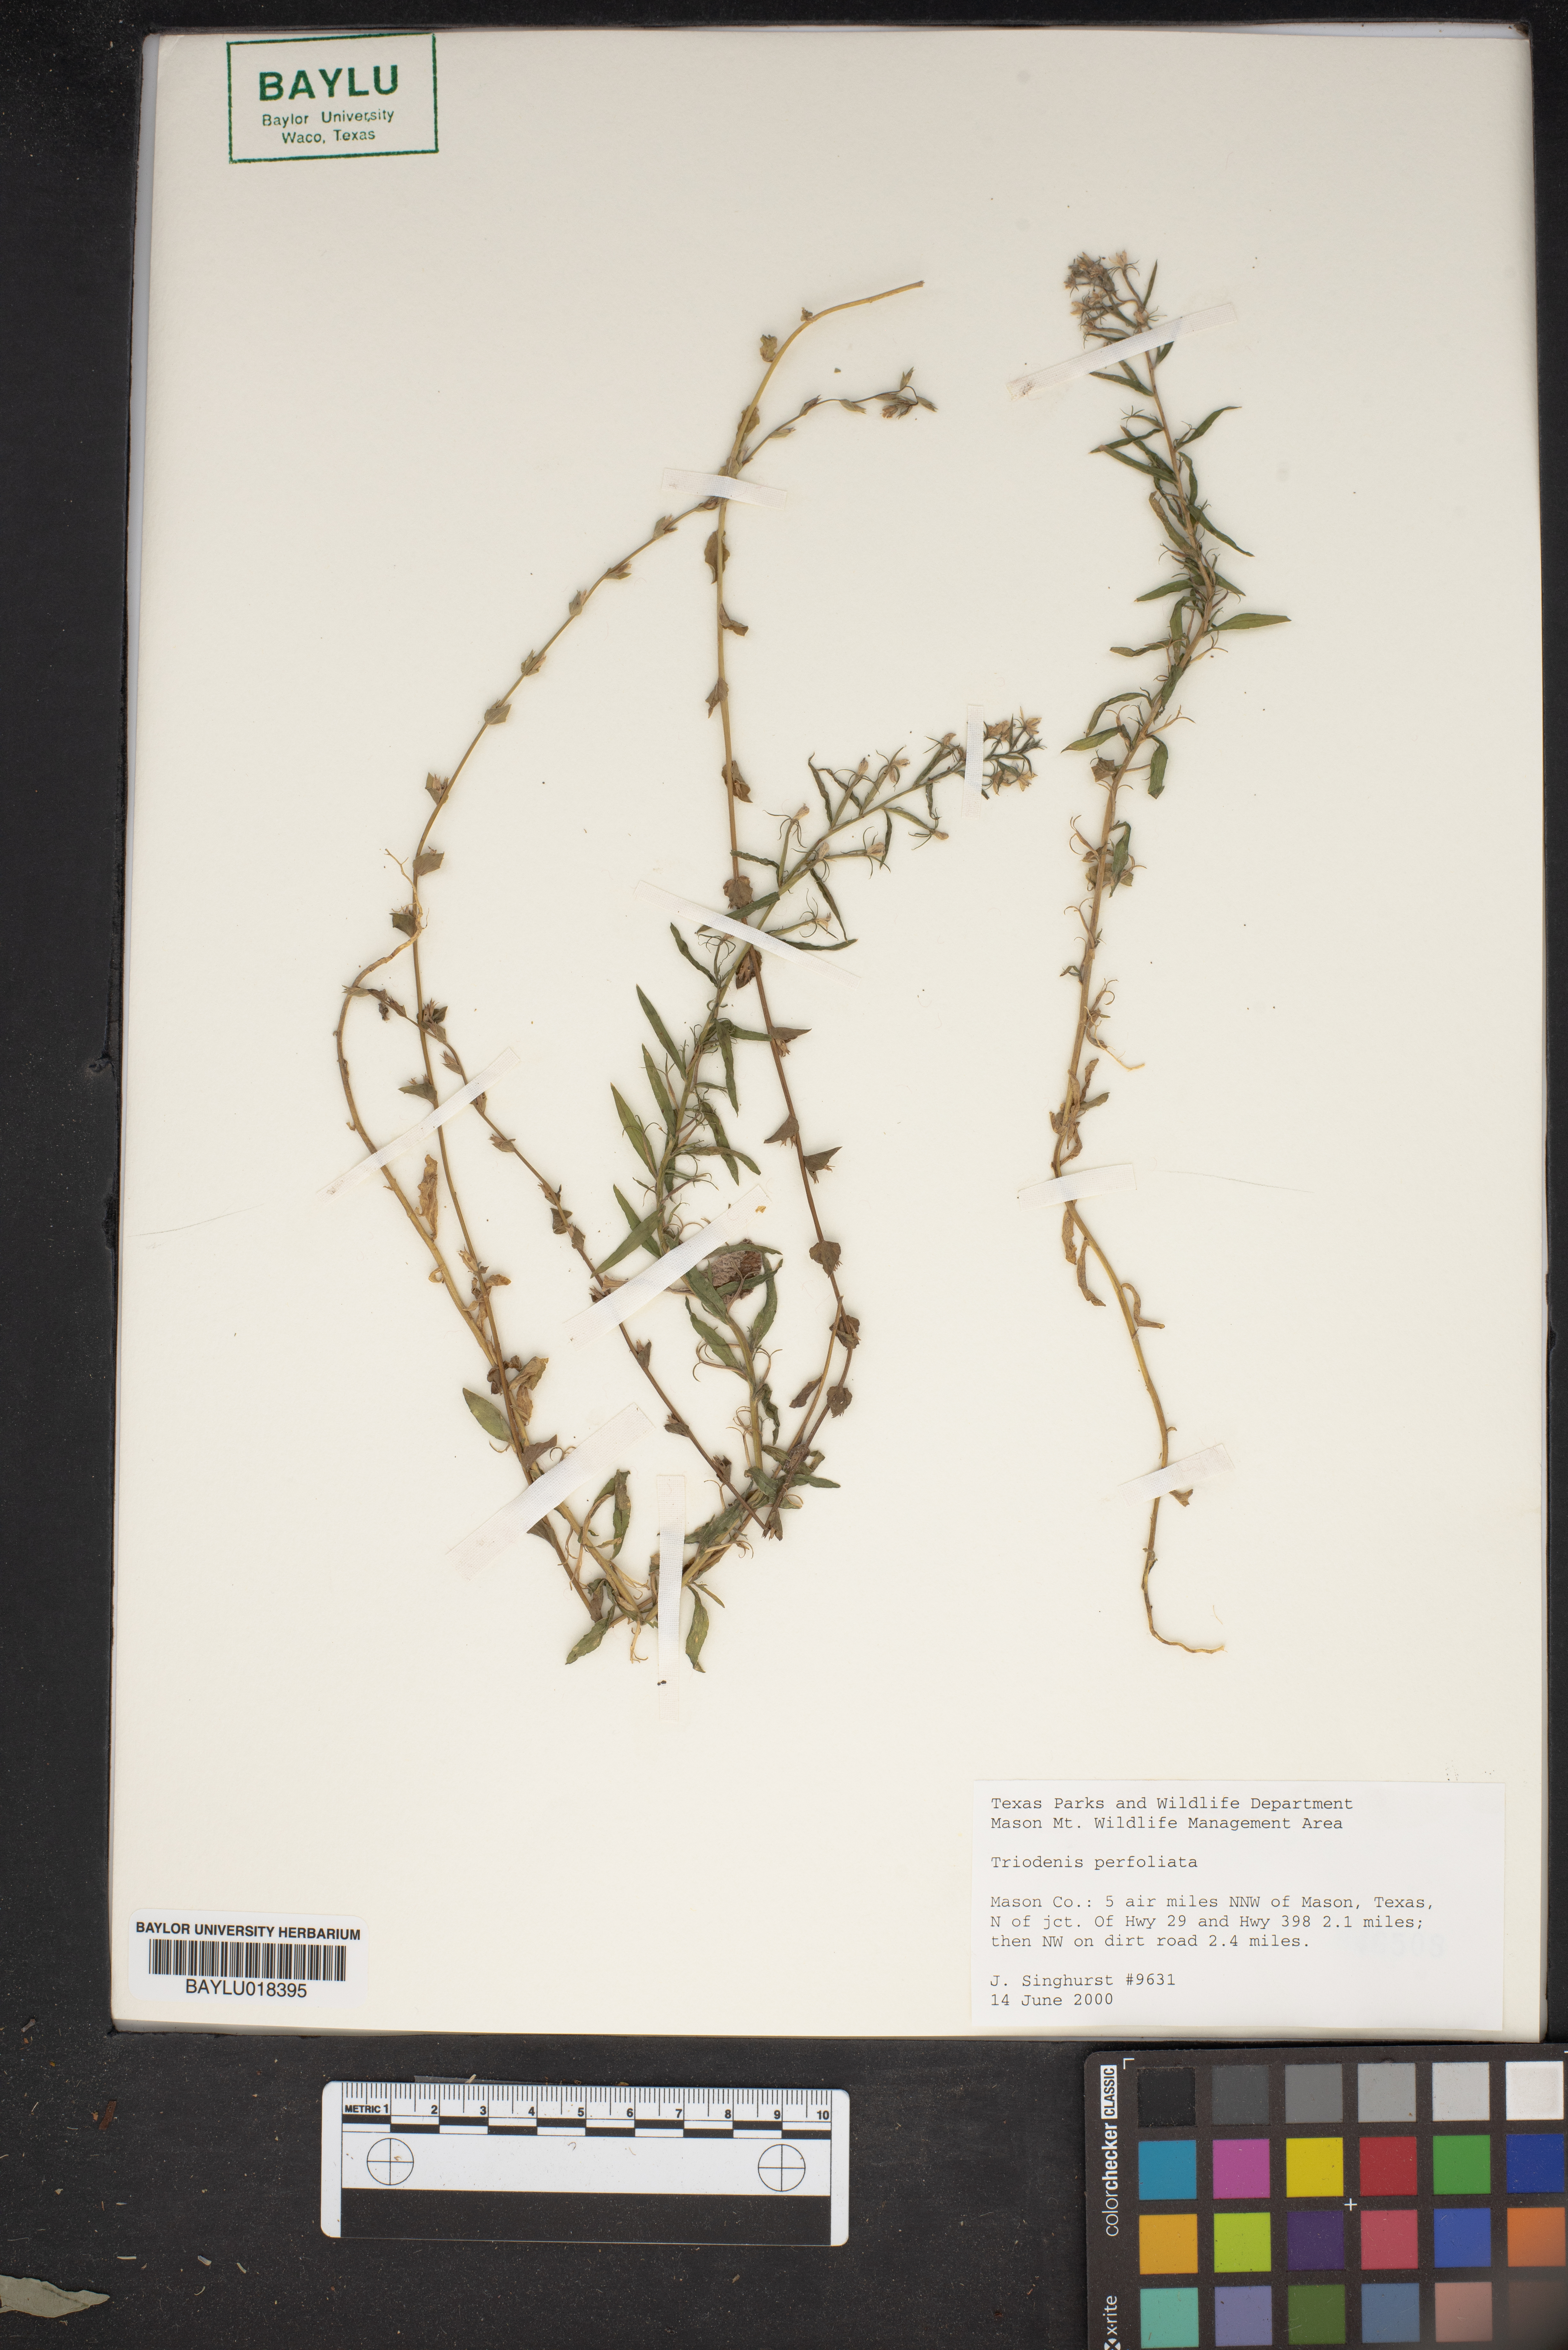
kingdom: Plantae
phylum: Tracheophyta
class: Magnoliopsida
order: Asterales
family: Campanulaceae
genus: Triodanis
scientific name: Triodanis perfoliata
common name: Clasping venus' looking-glass
